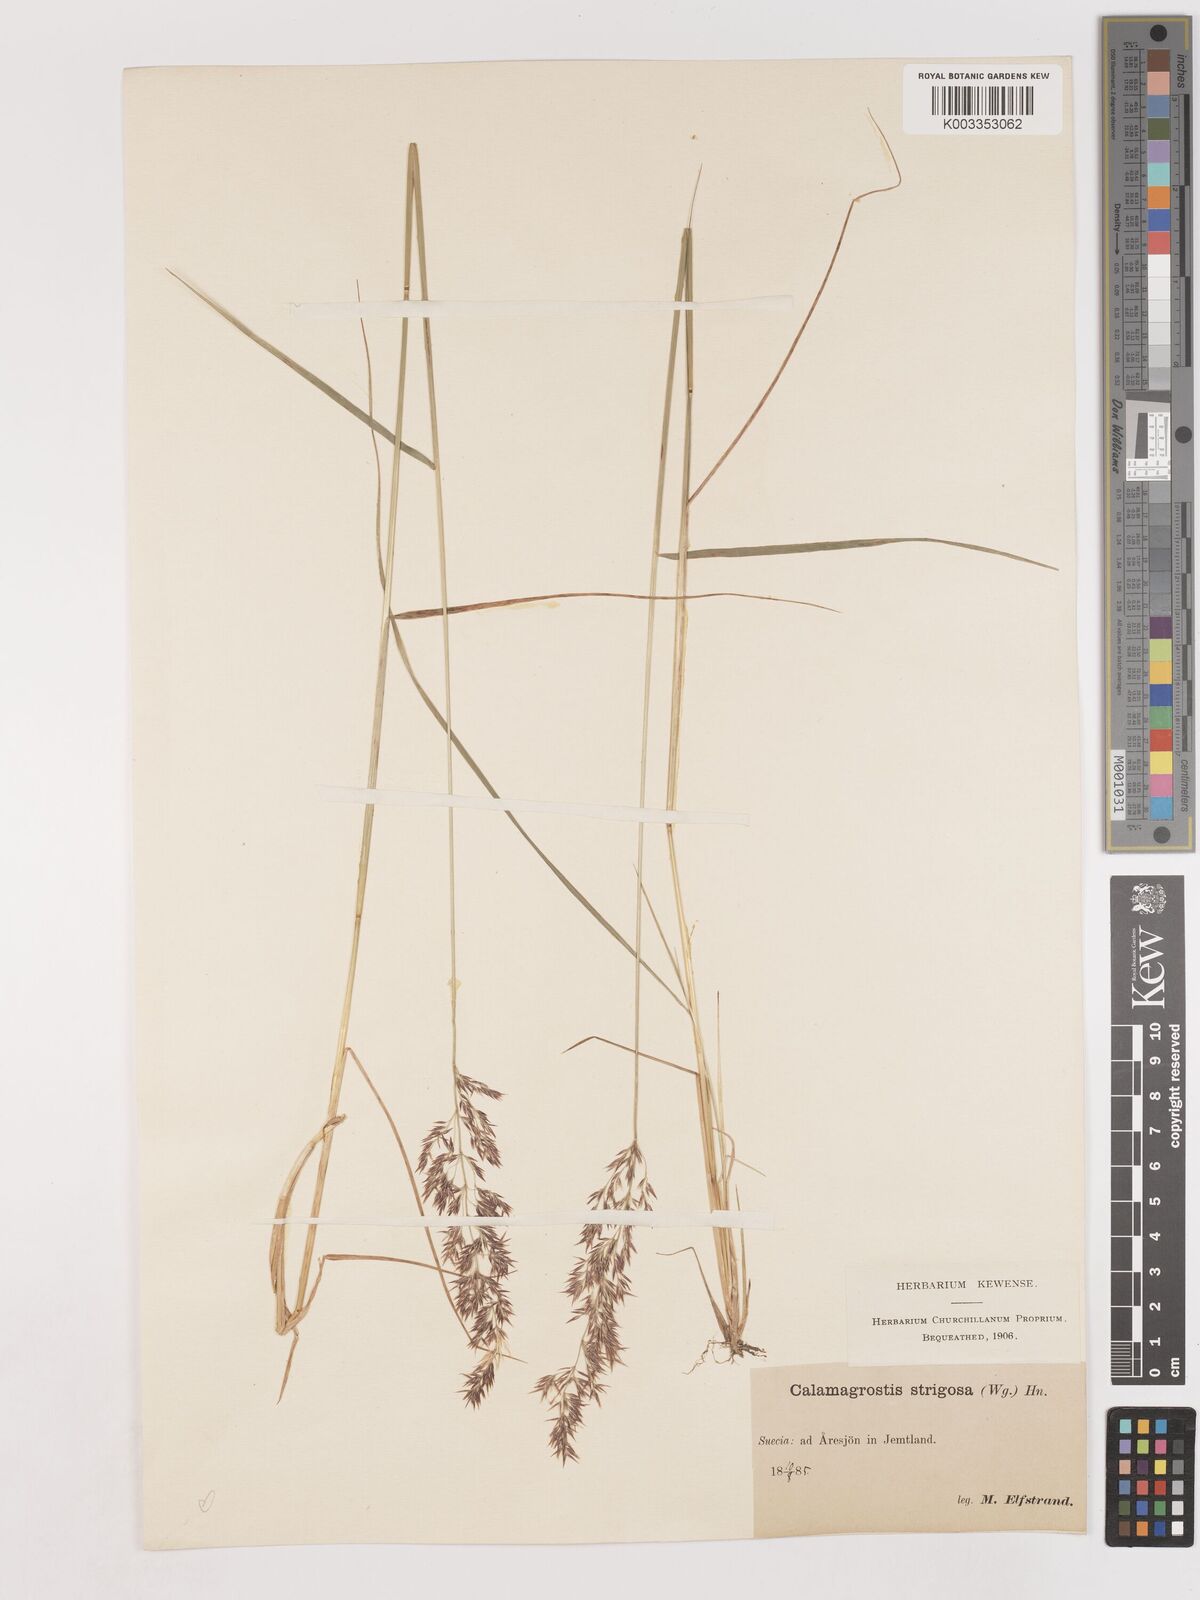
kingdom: Plantae
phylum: Tracheophyta
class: Liliopsida
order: Poales
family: Poaceae
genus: Calamagrostis
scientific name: Calamagrostis epigejos
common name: Wood small-reed
